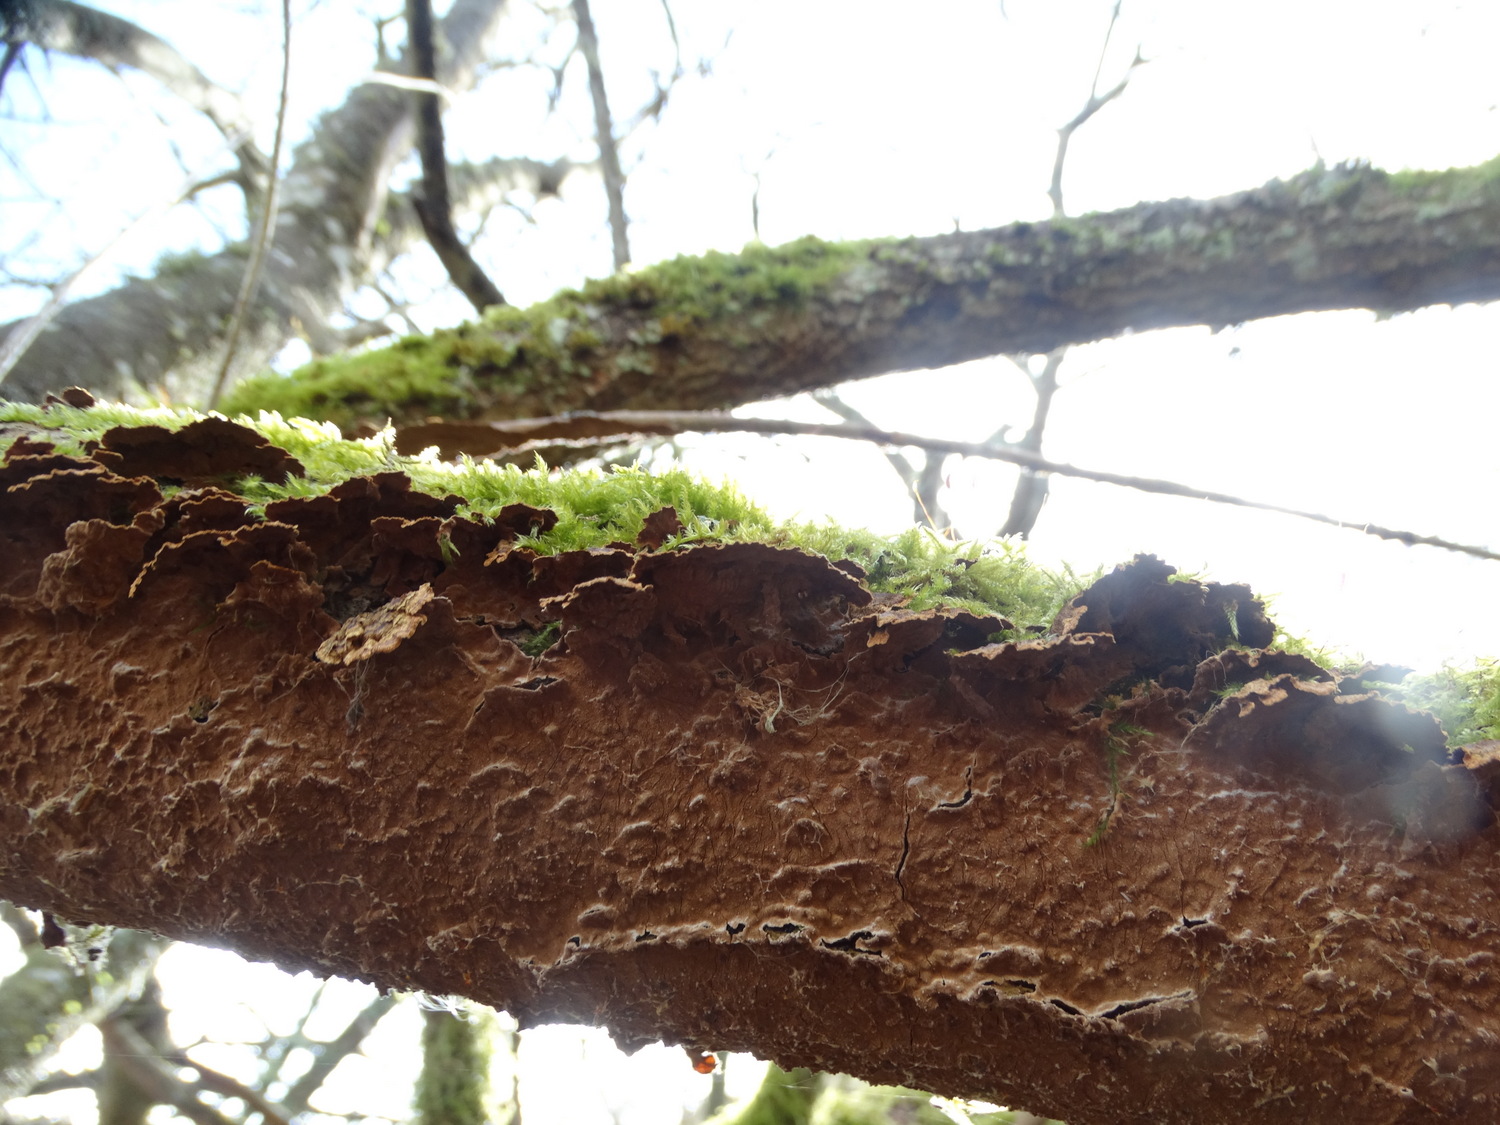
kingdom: Fungi
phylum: Basidiomycota
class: Agaricomycetes
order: Hymenochaetales
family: Hymenochaetaceae
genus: Hydnoporia
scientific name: Hydnoporia tabacina
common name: tobaksbrun ruslædersvamp
